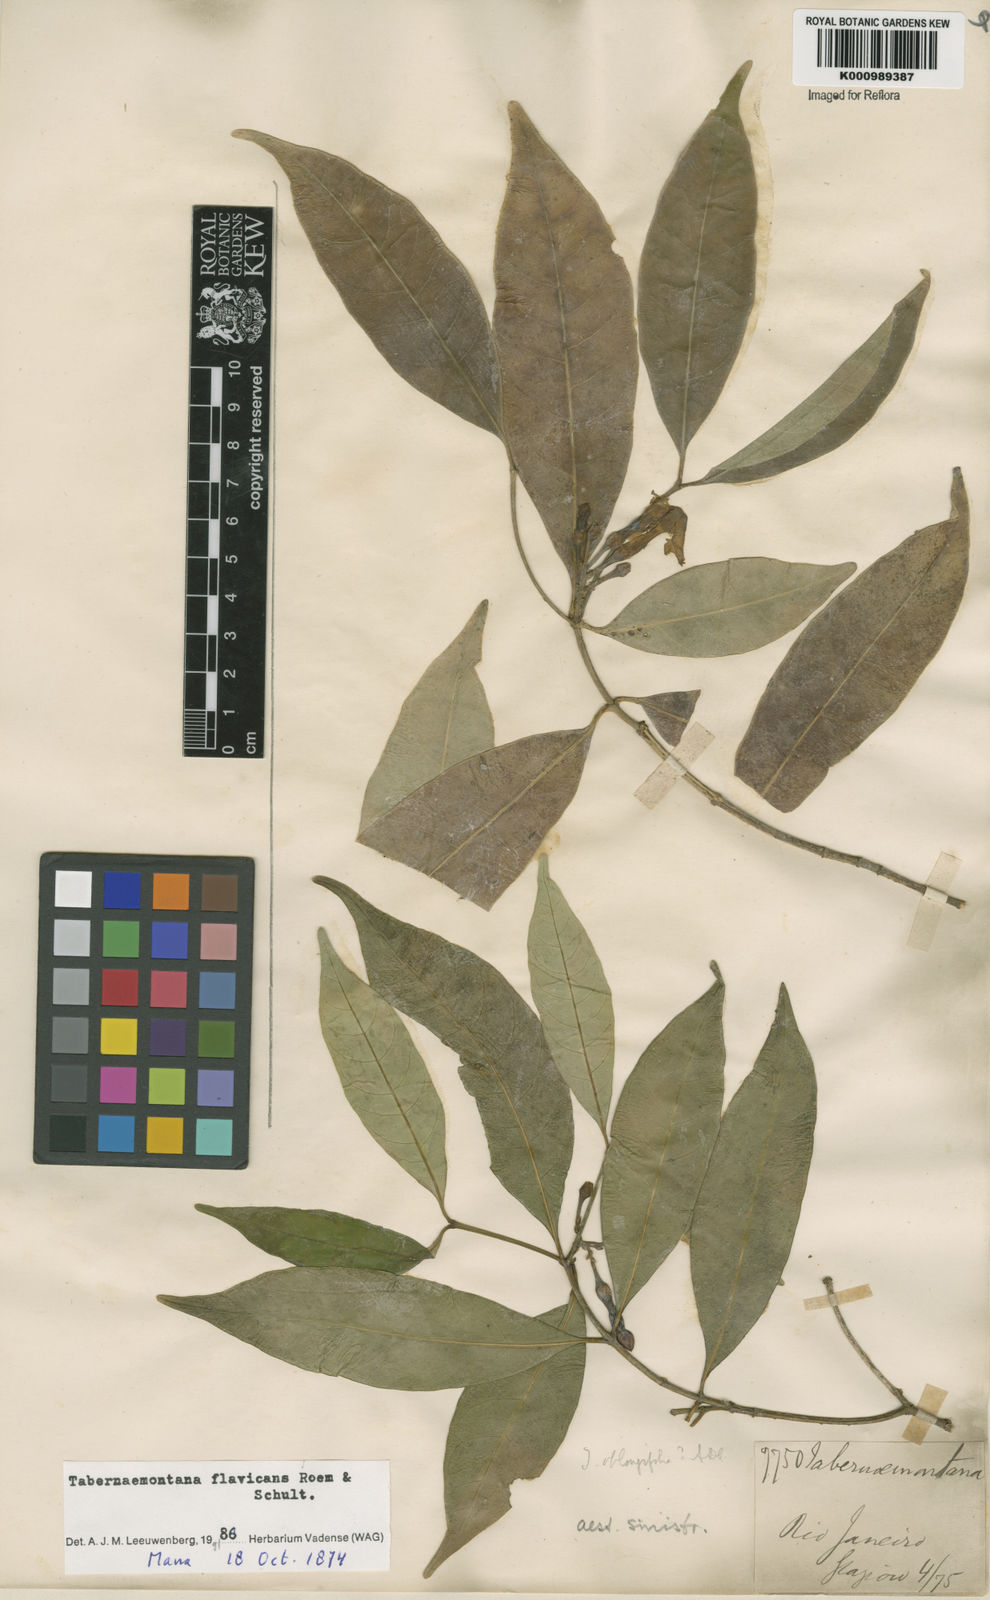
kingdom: Plantae
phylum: Tracheophyta
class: Magnoliopsida
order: Gentianales
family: Apocynaceae
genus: Tabernaemontana
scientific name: Tabernaemontana flavicans
